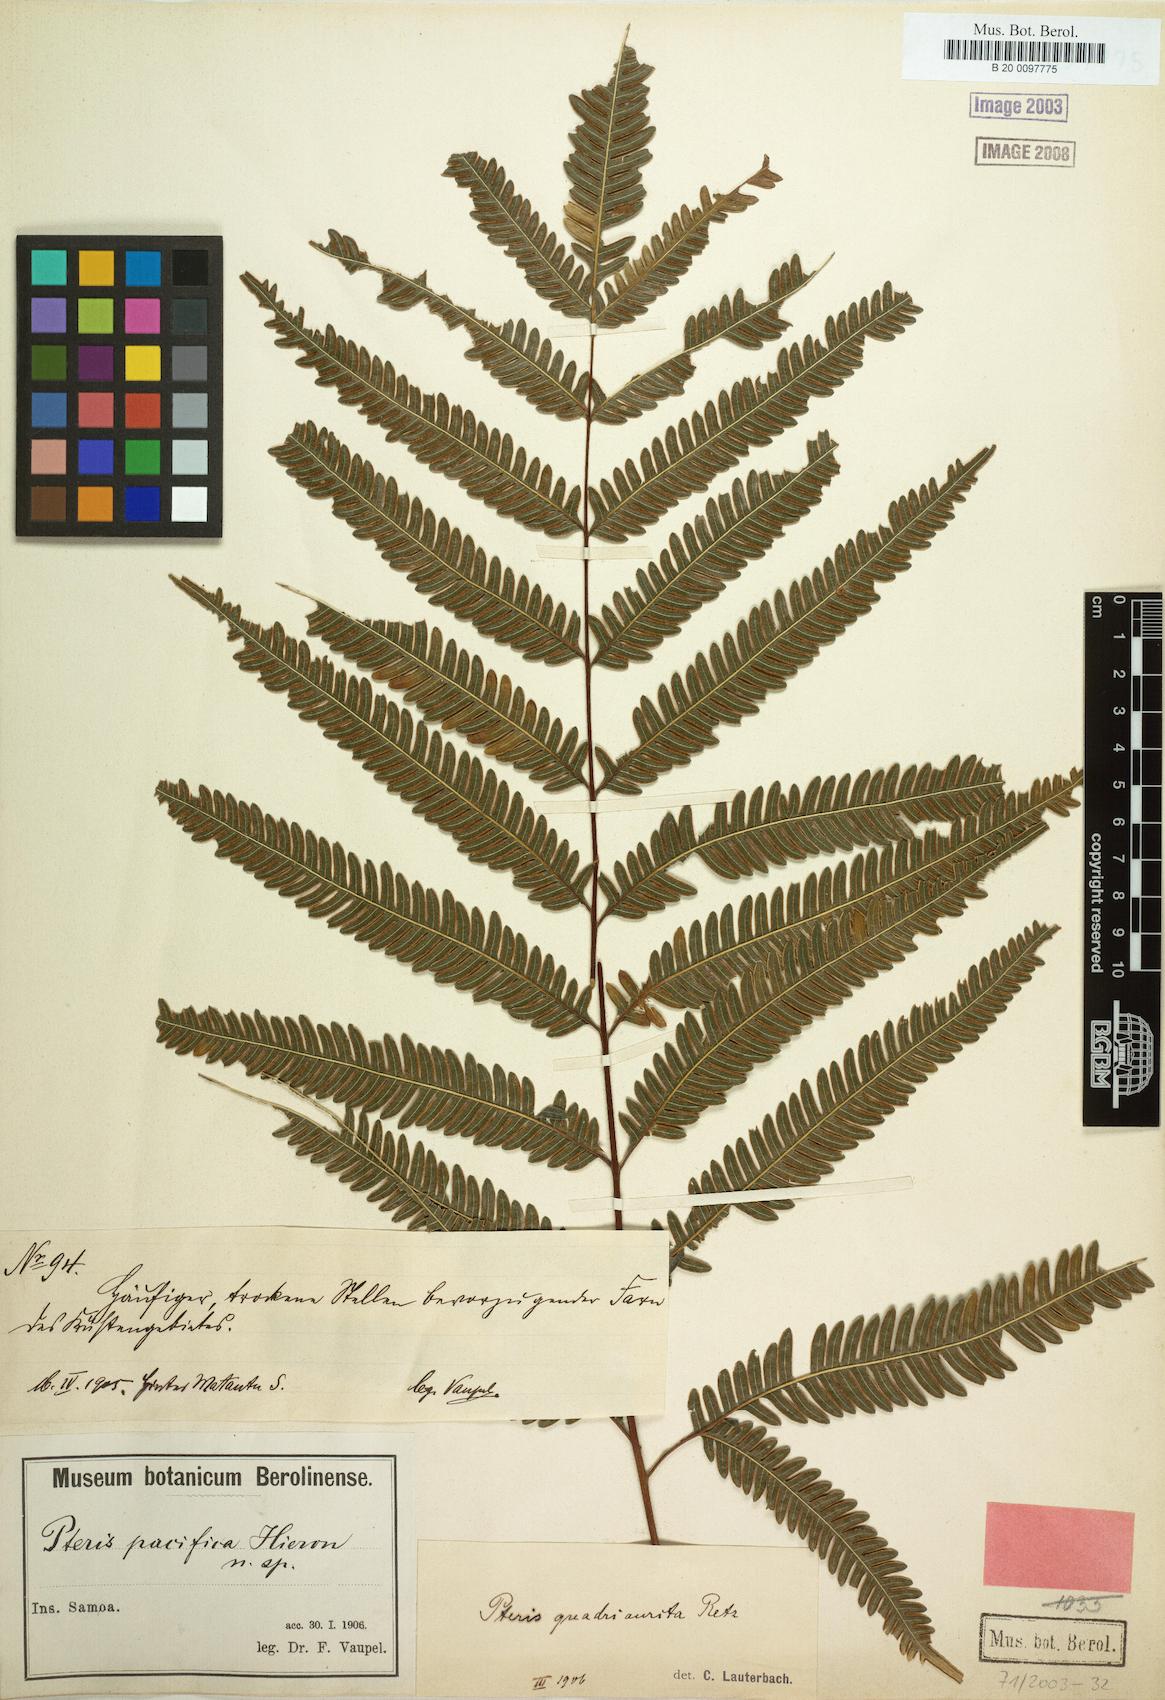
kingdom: Plantae
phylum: Tracheophyta
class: Polypodiopsida
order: Polypodiales
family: Pteridaceae
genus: Pteris
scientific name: Pteris biaurita
